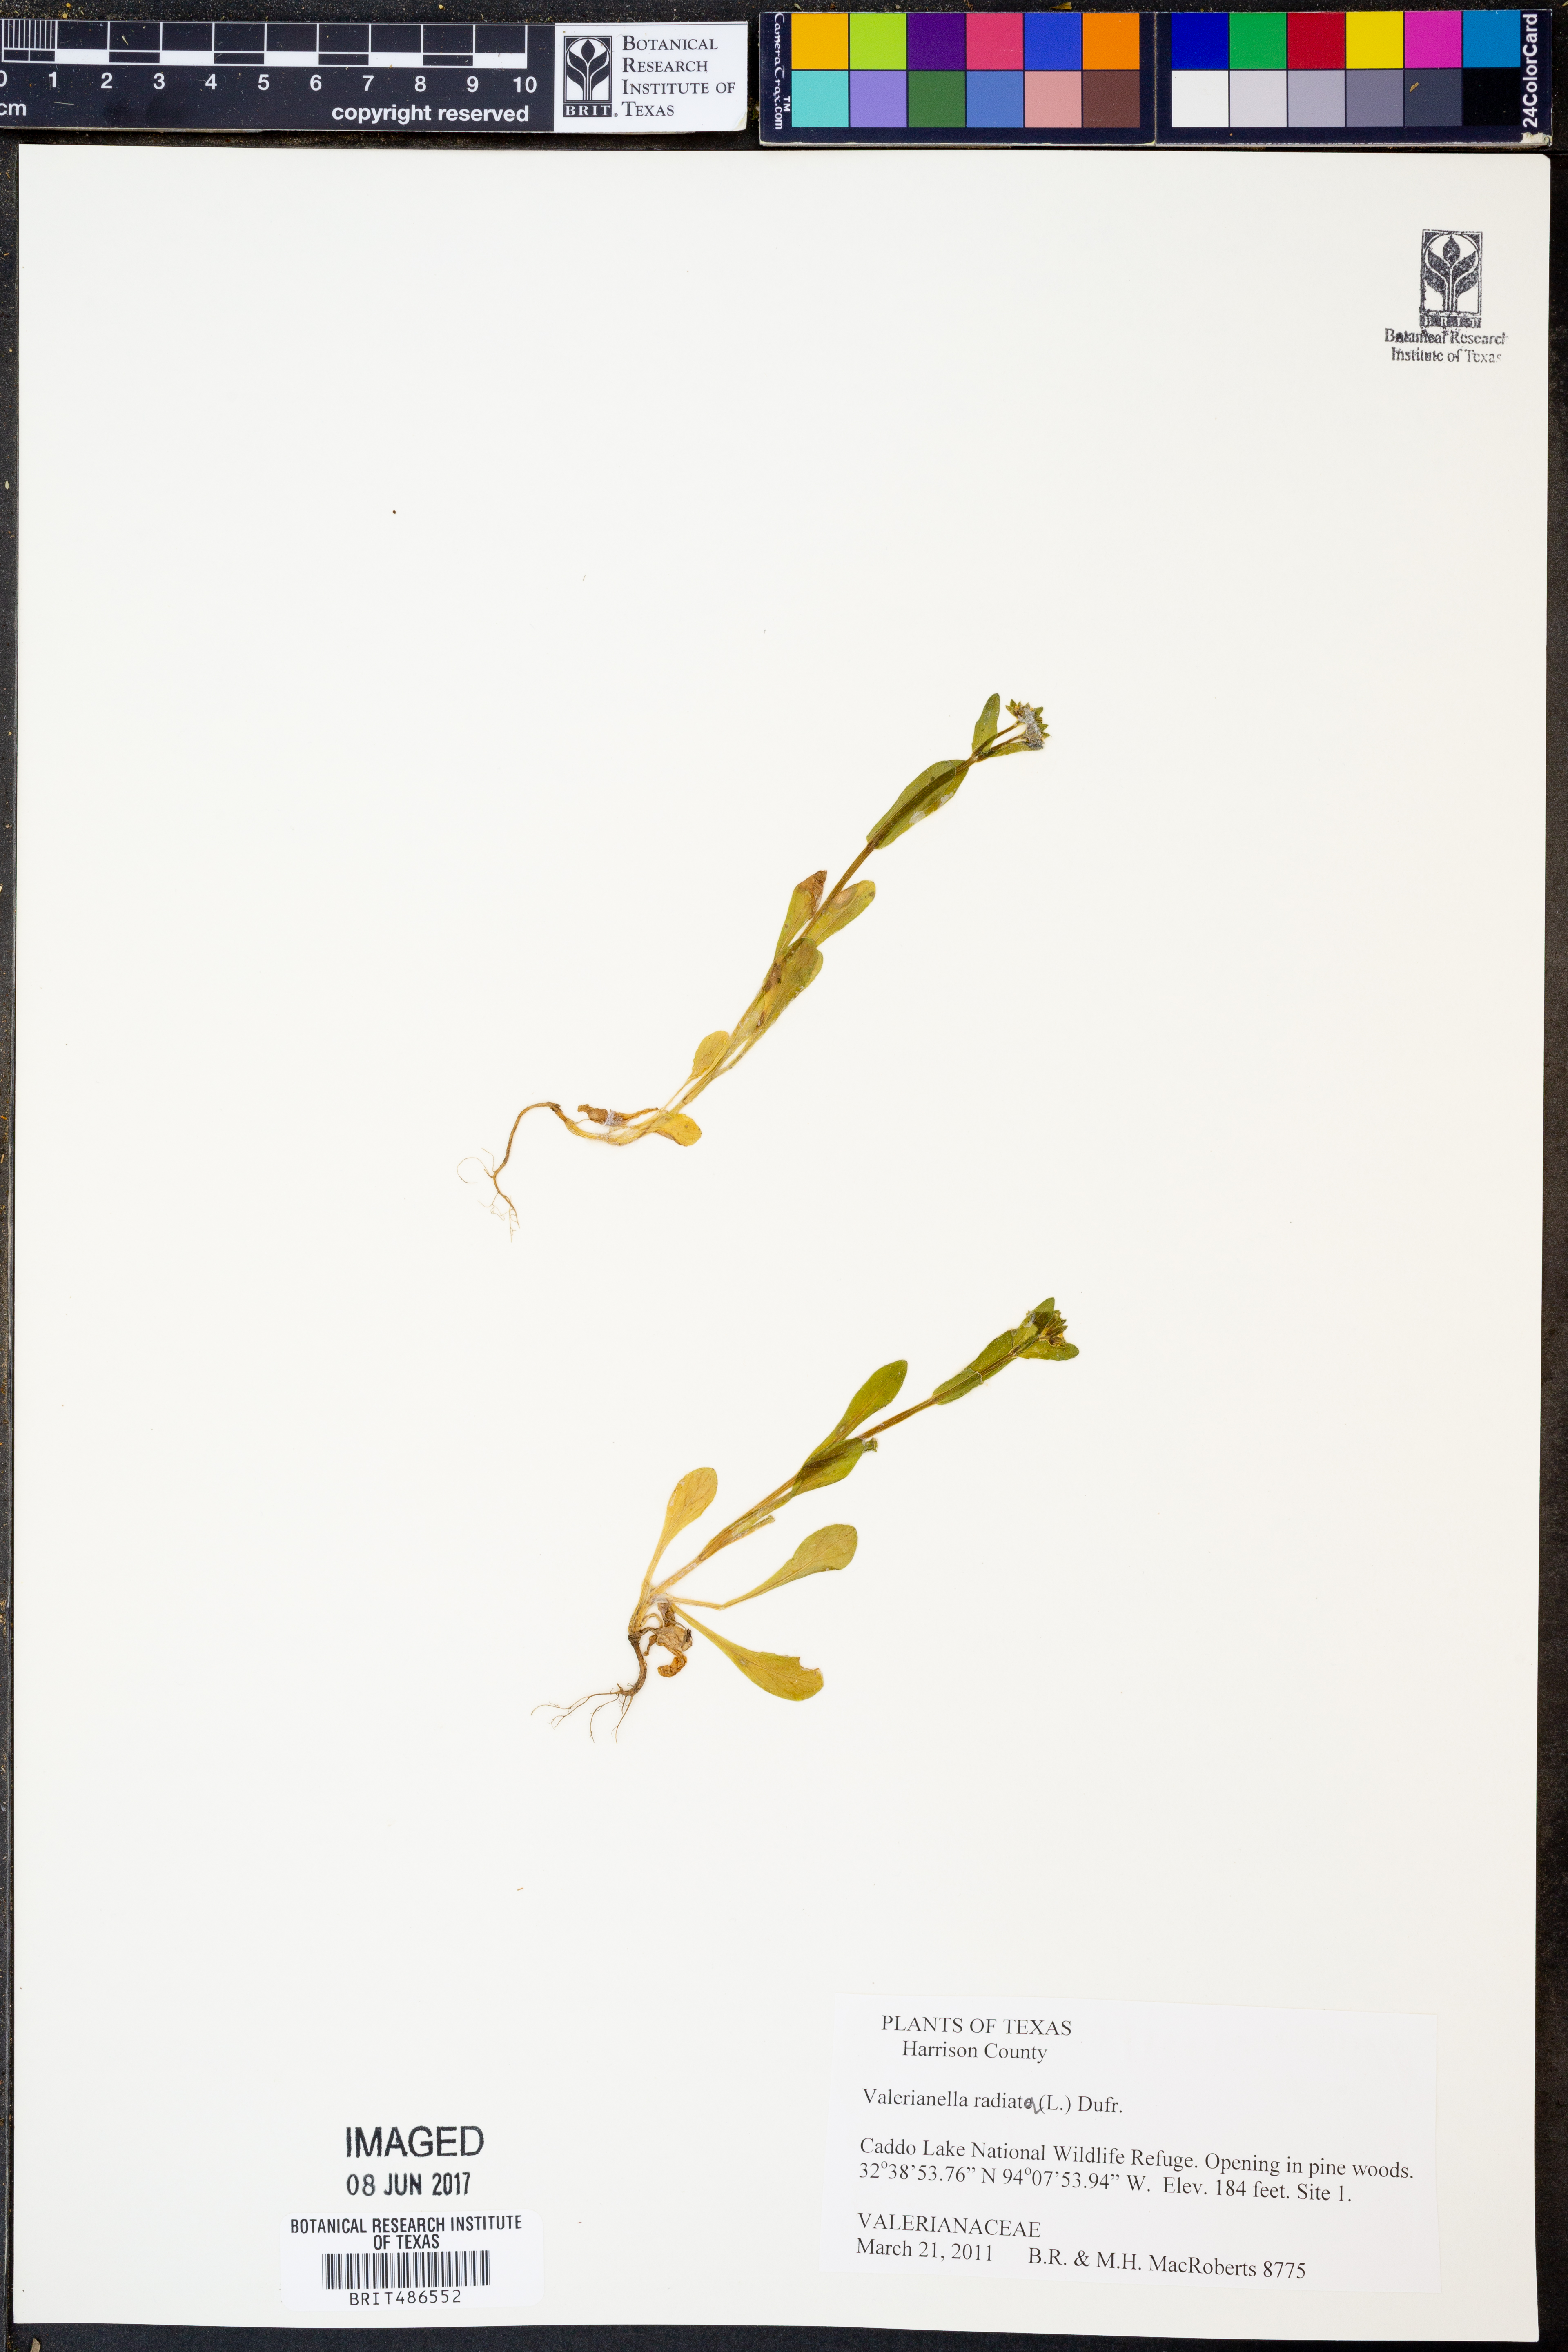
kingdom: Plantae
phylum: Tracheophyta
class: Magnoliopsida
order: Dipsacales
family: Caprifoliaceae
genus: Valerianella
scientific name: Valerianella radiata
